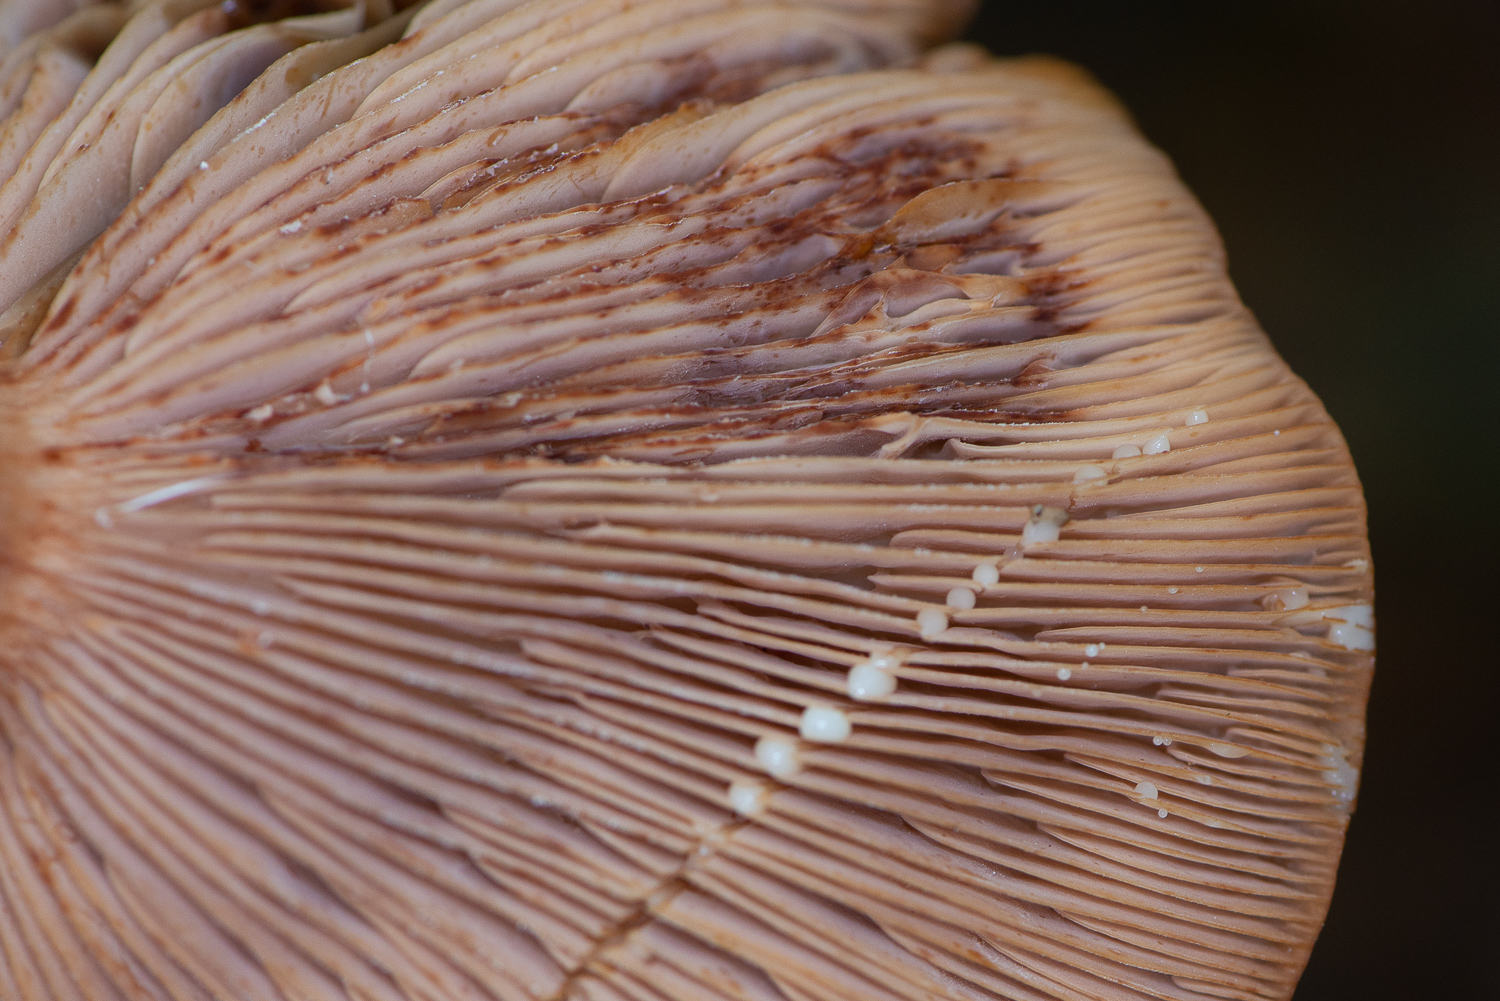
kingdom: Fungi
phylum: Basidiomycota
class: Agaricomycetes
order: Russulales
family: Russulaceae
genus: Lactarius
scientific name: Lactarius quietus
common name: ege-mælkehat
